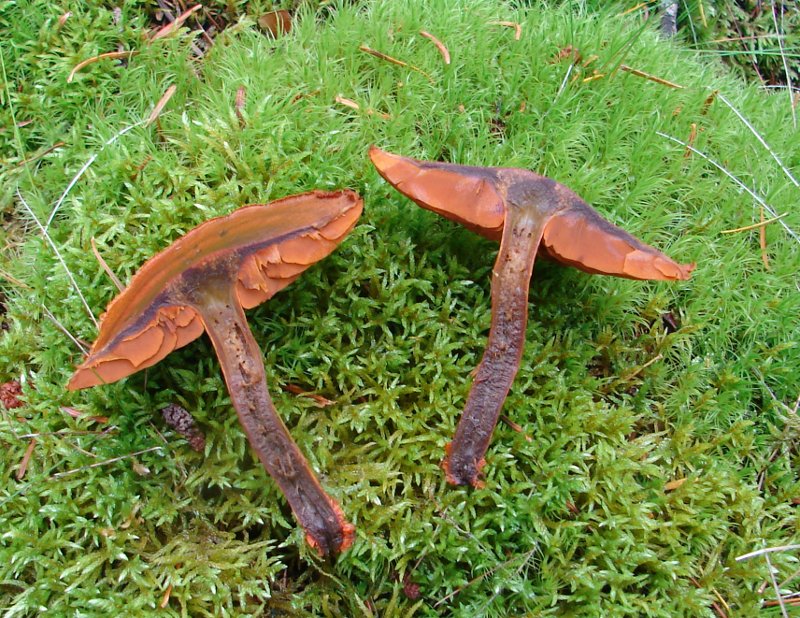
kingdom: Fungi
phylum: Basidiomycota
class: Agaricomycetes
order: Agaricales
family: Cortinariaceae
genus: Cortinarius
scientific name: Cortinarius malicorius
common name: grønkødet slørhat
